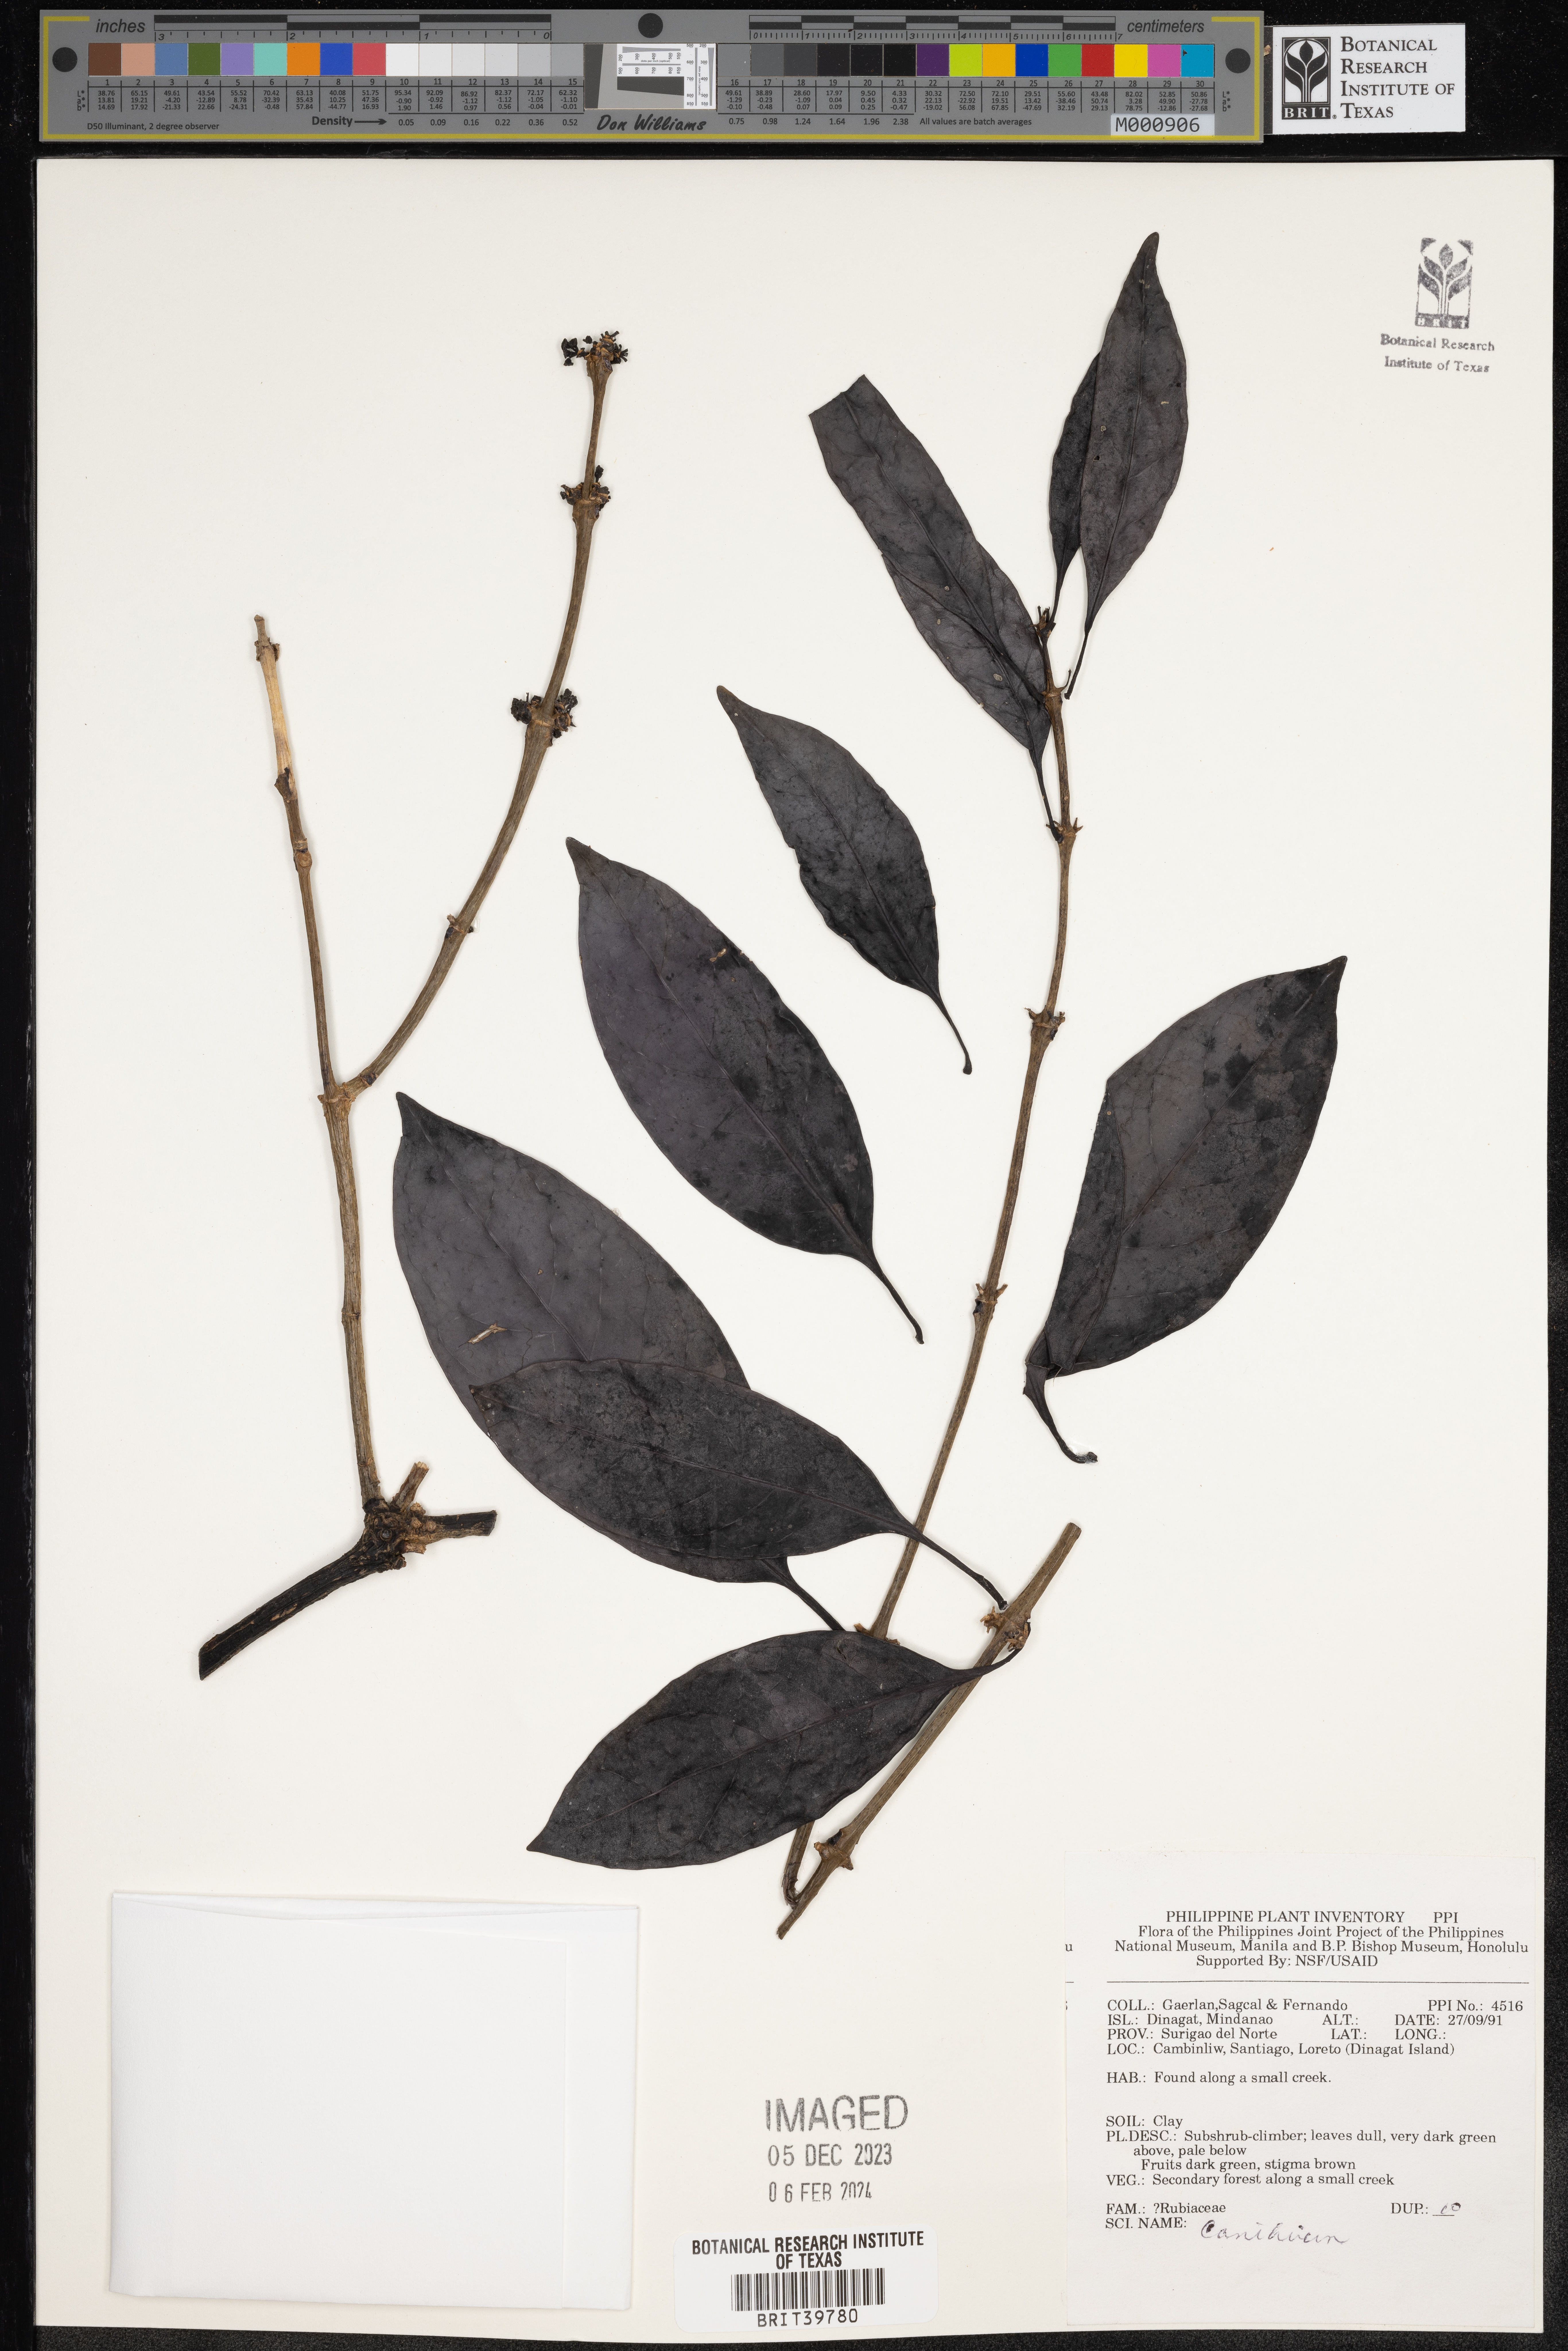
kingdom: Plantae
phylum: Tracheophyta
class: Magnoliopsida
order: Gentianales
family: Rubiaceae
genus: Canthium
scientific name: Canthium
